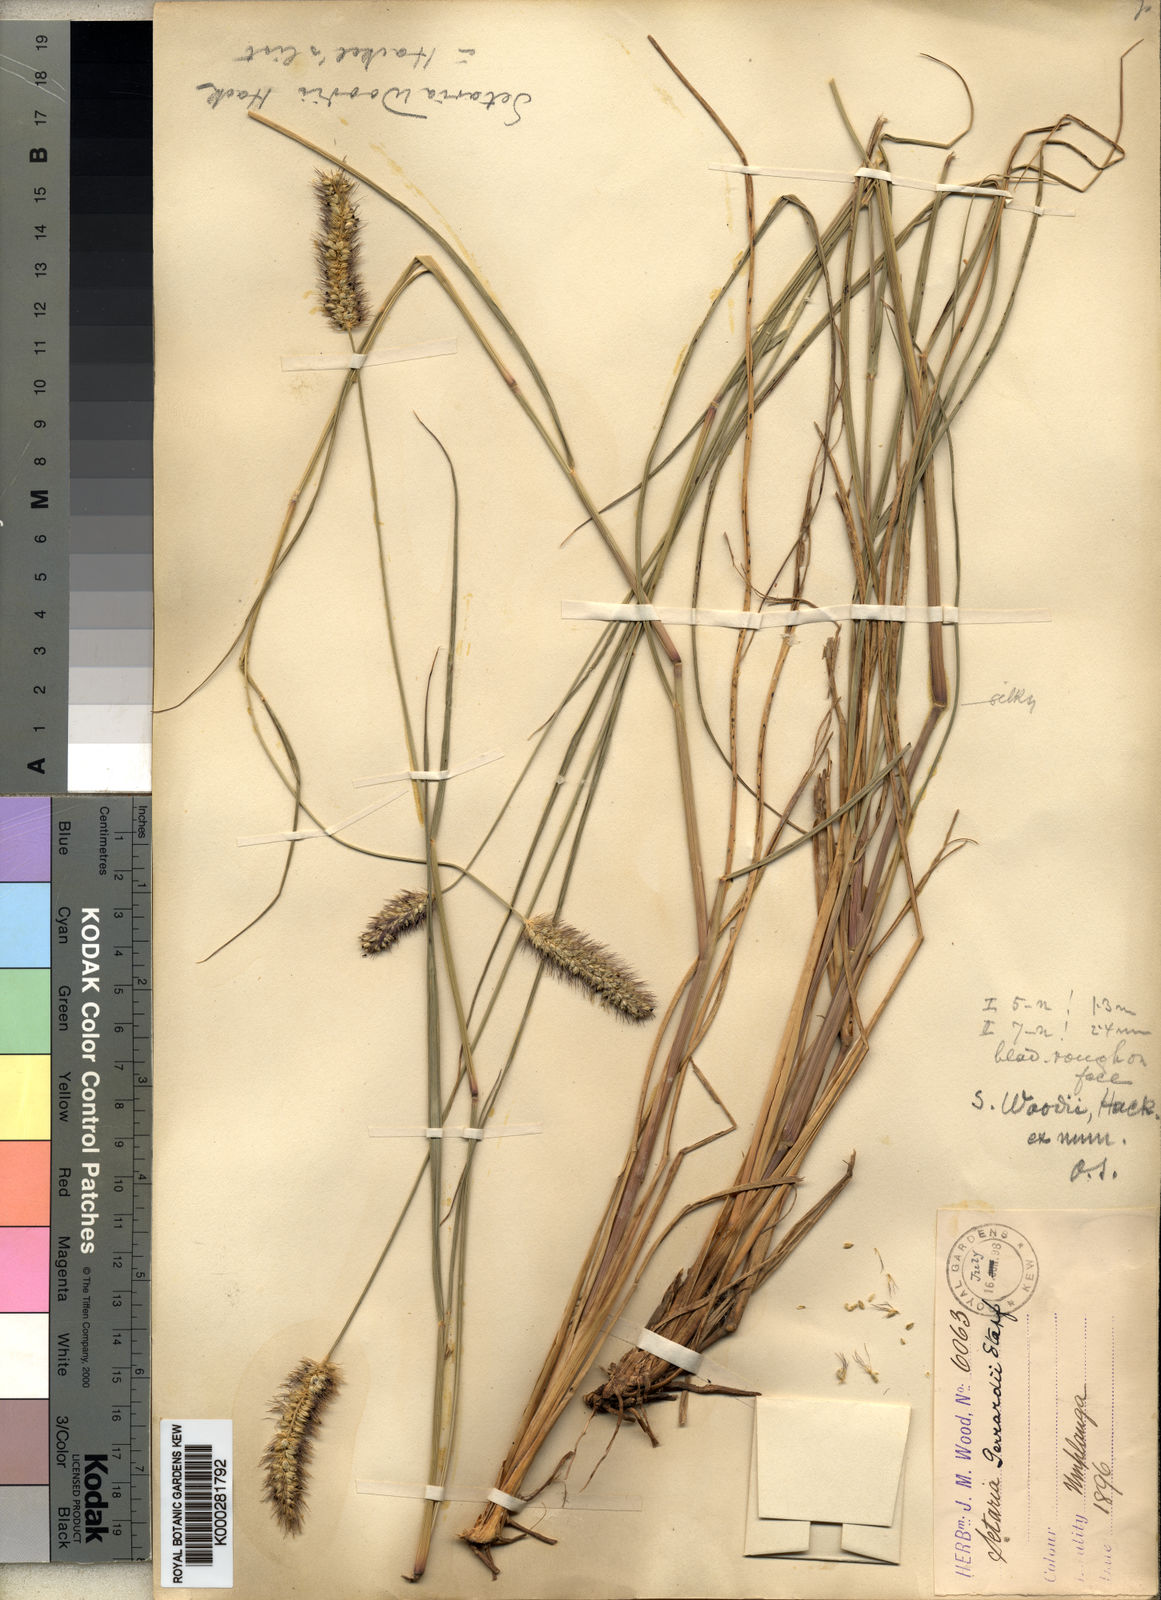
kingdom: Plantae
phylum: Tracheophyta
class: Liliopsida
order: Poales
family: Poaceae
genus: Setaria
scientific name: Setaria incrassata
